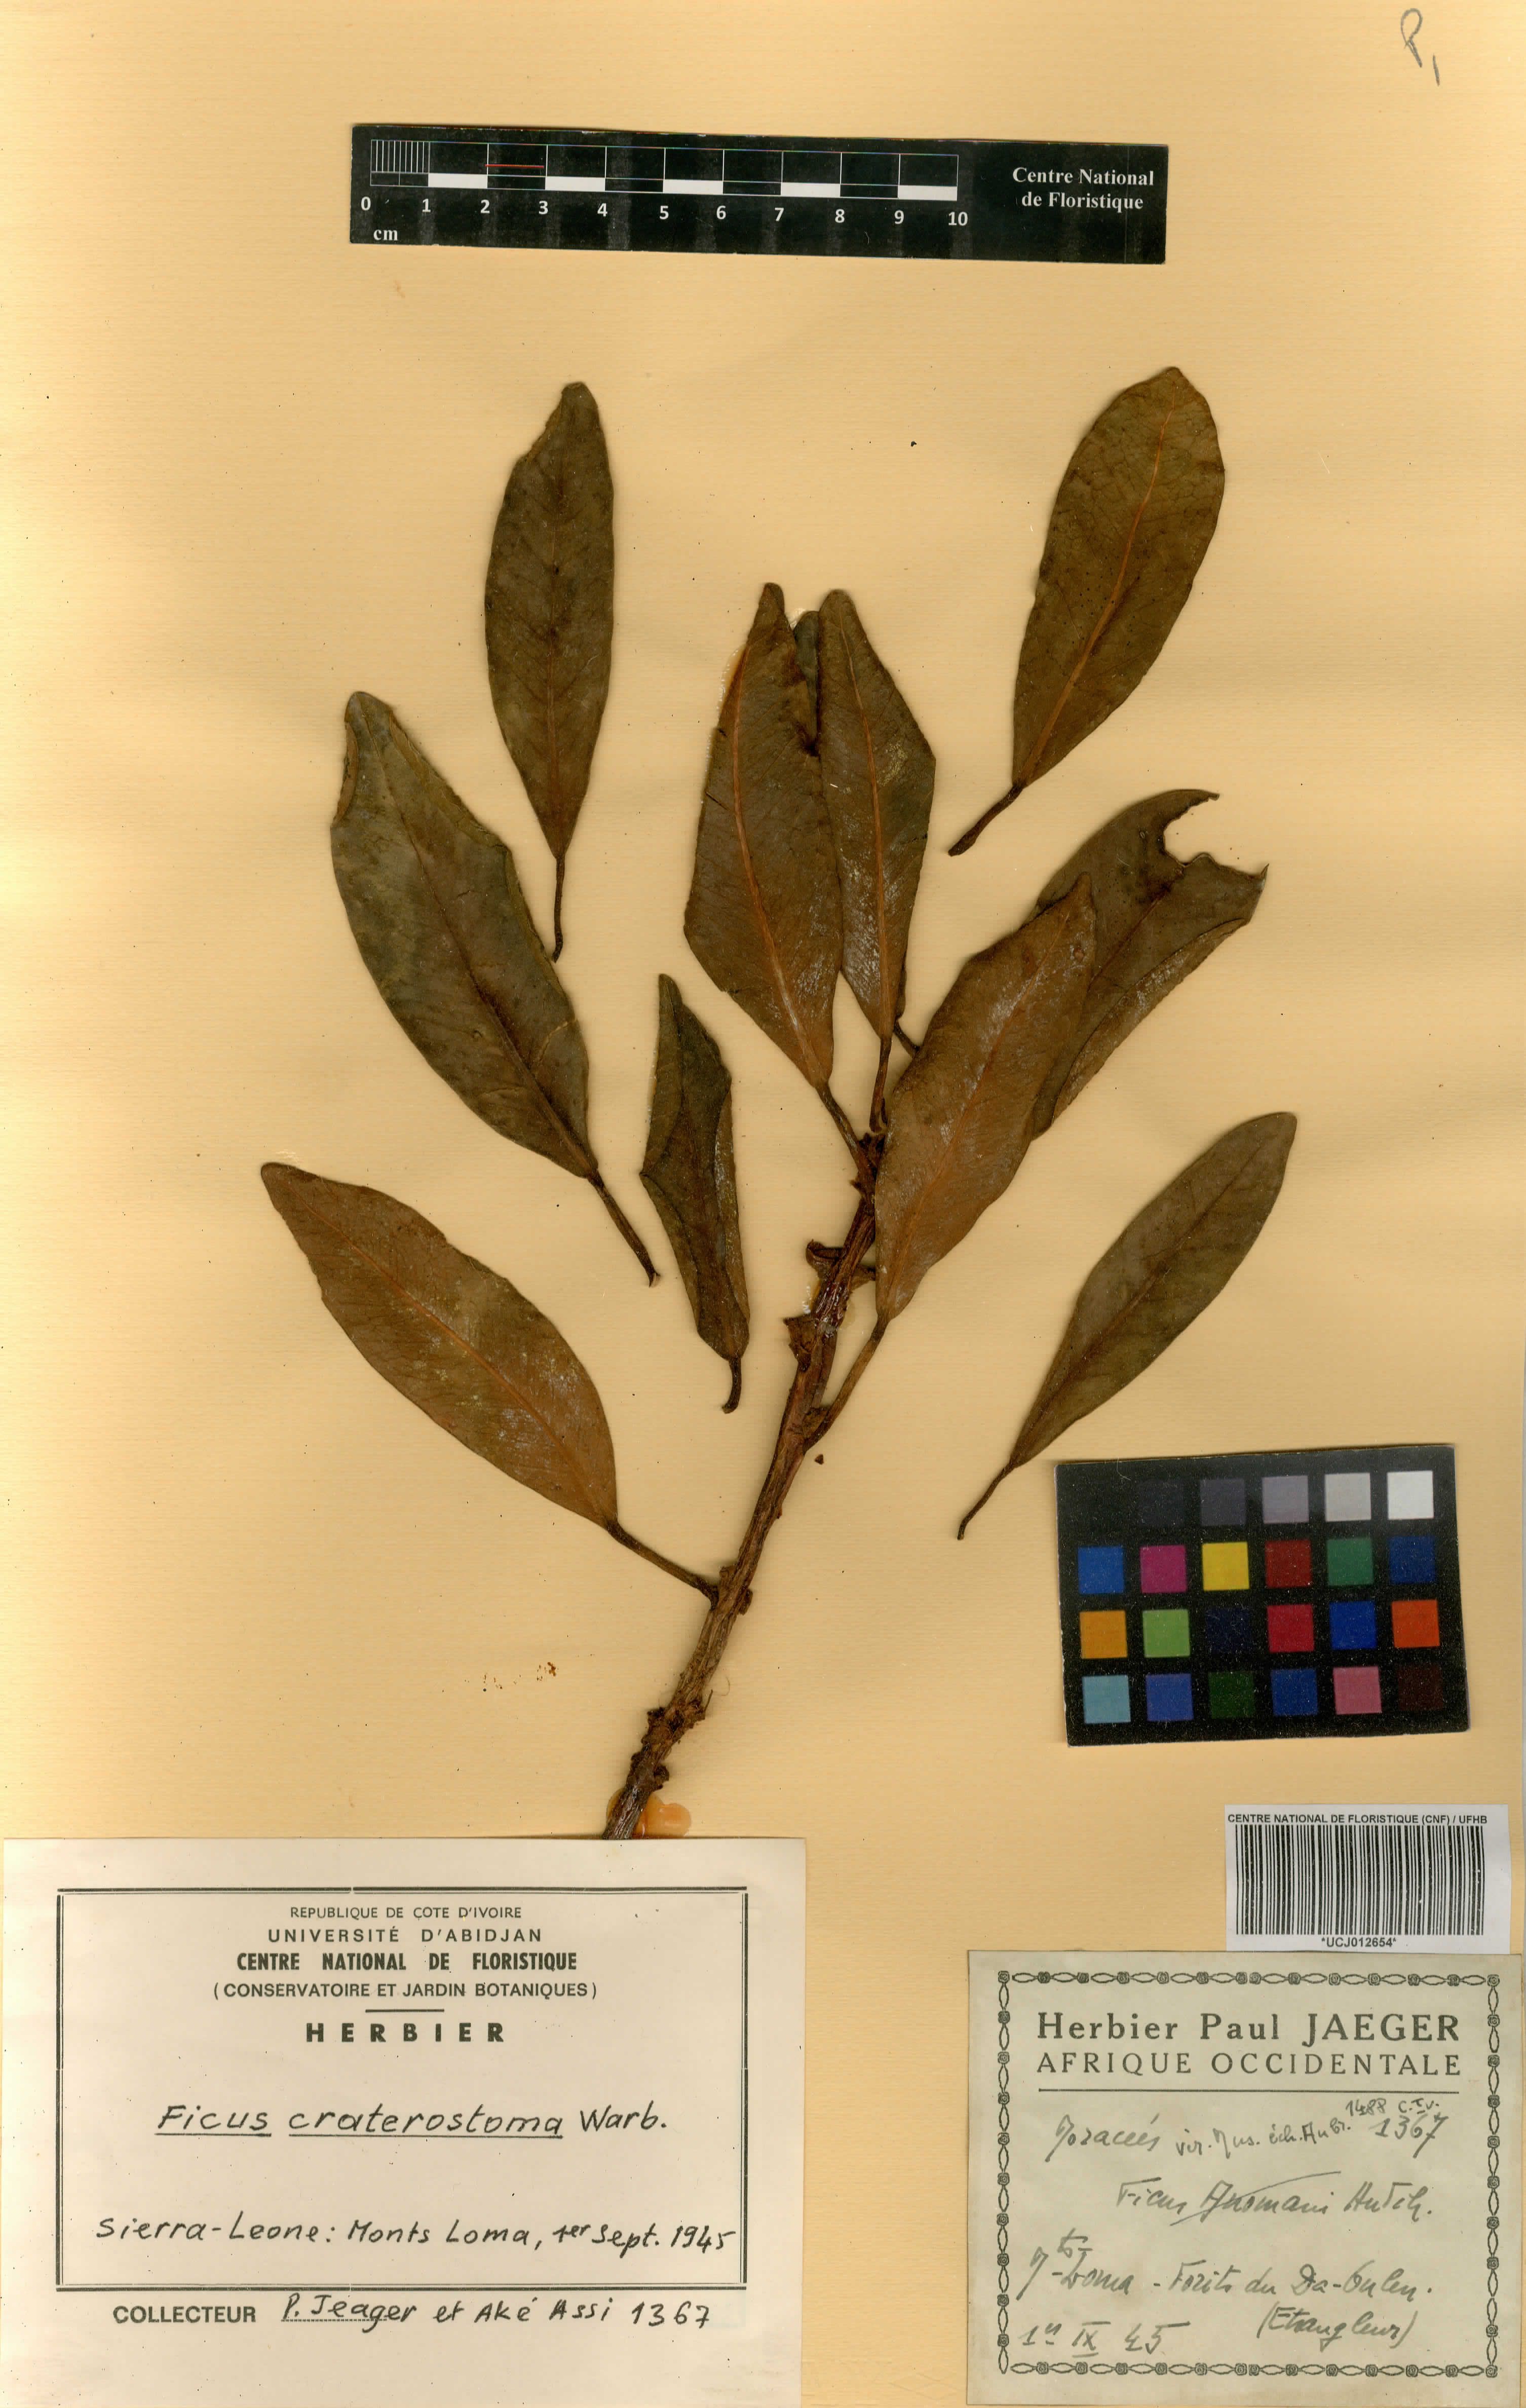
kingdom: Plantae
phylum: Tracheophyta
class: Magnoliopsida
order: Rosales
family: Moraceae
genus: Ficus
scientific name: Ficus craterostoma
